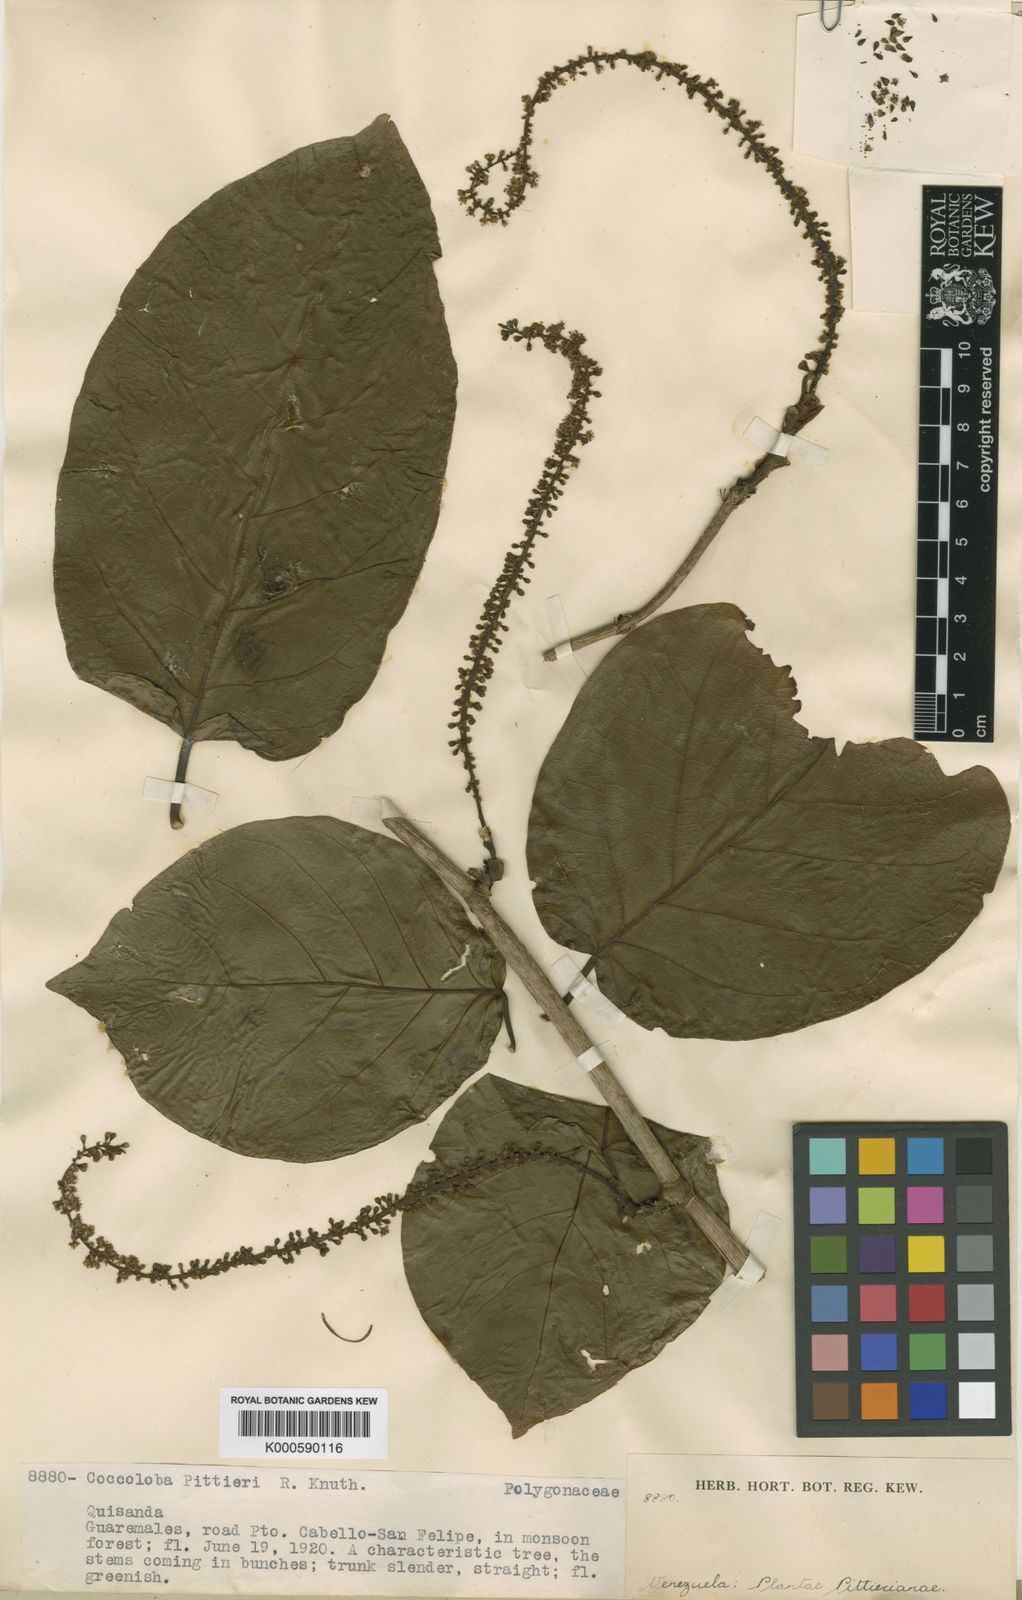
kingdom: Plantae
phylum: Tracheophyta
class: Magnoliopsida
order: Caryophyllales
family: Polygonaceae
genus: Coccoloba
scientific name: Coccoloba striata
